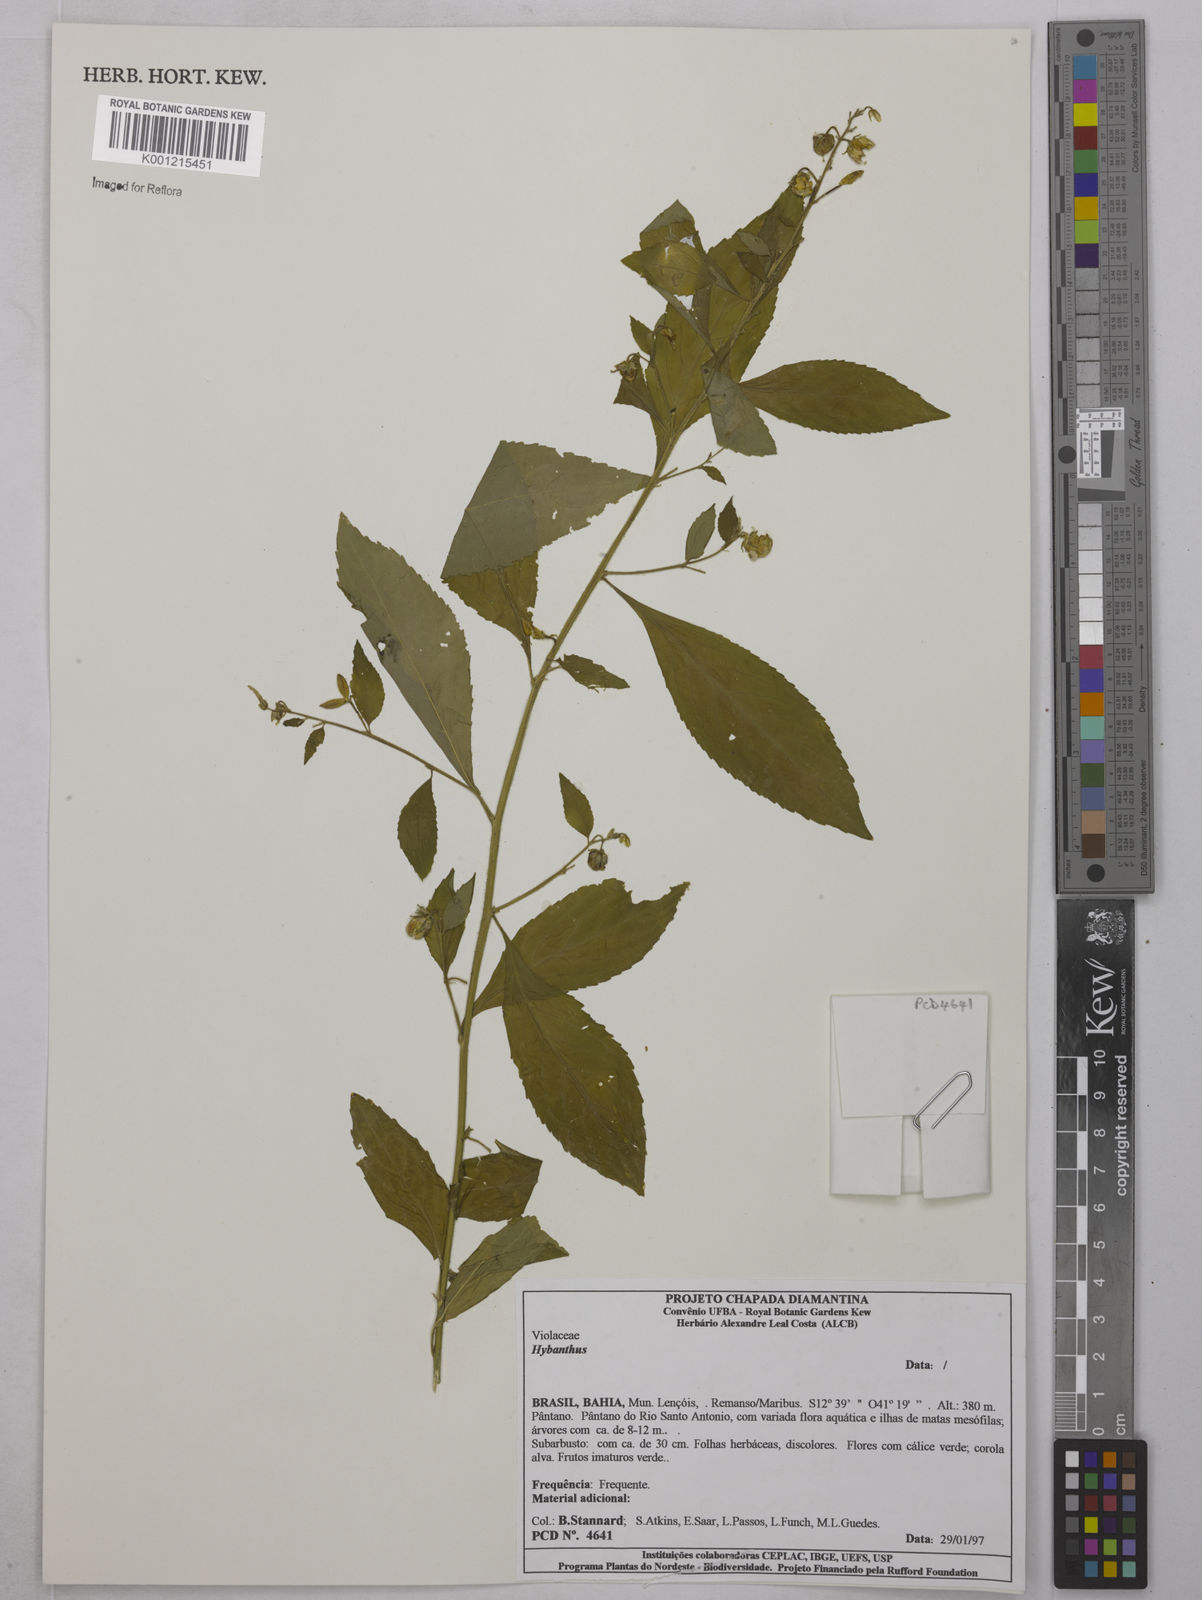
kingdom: Plantae
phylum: Tracheophyta
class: Magnoliopsida
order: Malpighiales
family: Violaceae
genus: Hybanthus
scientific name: Hybanthus
